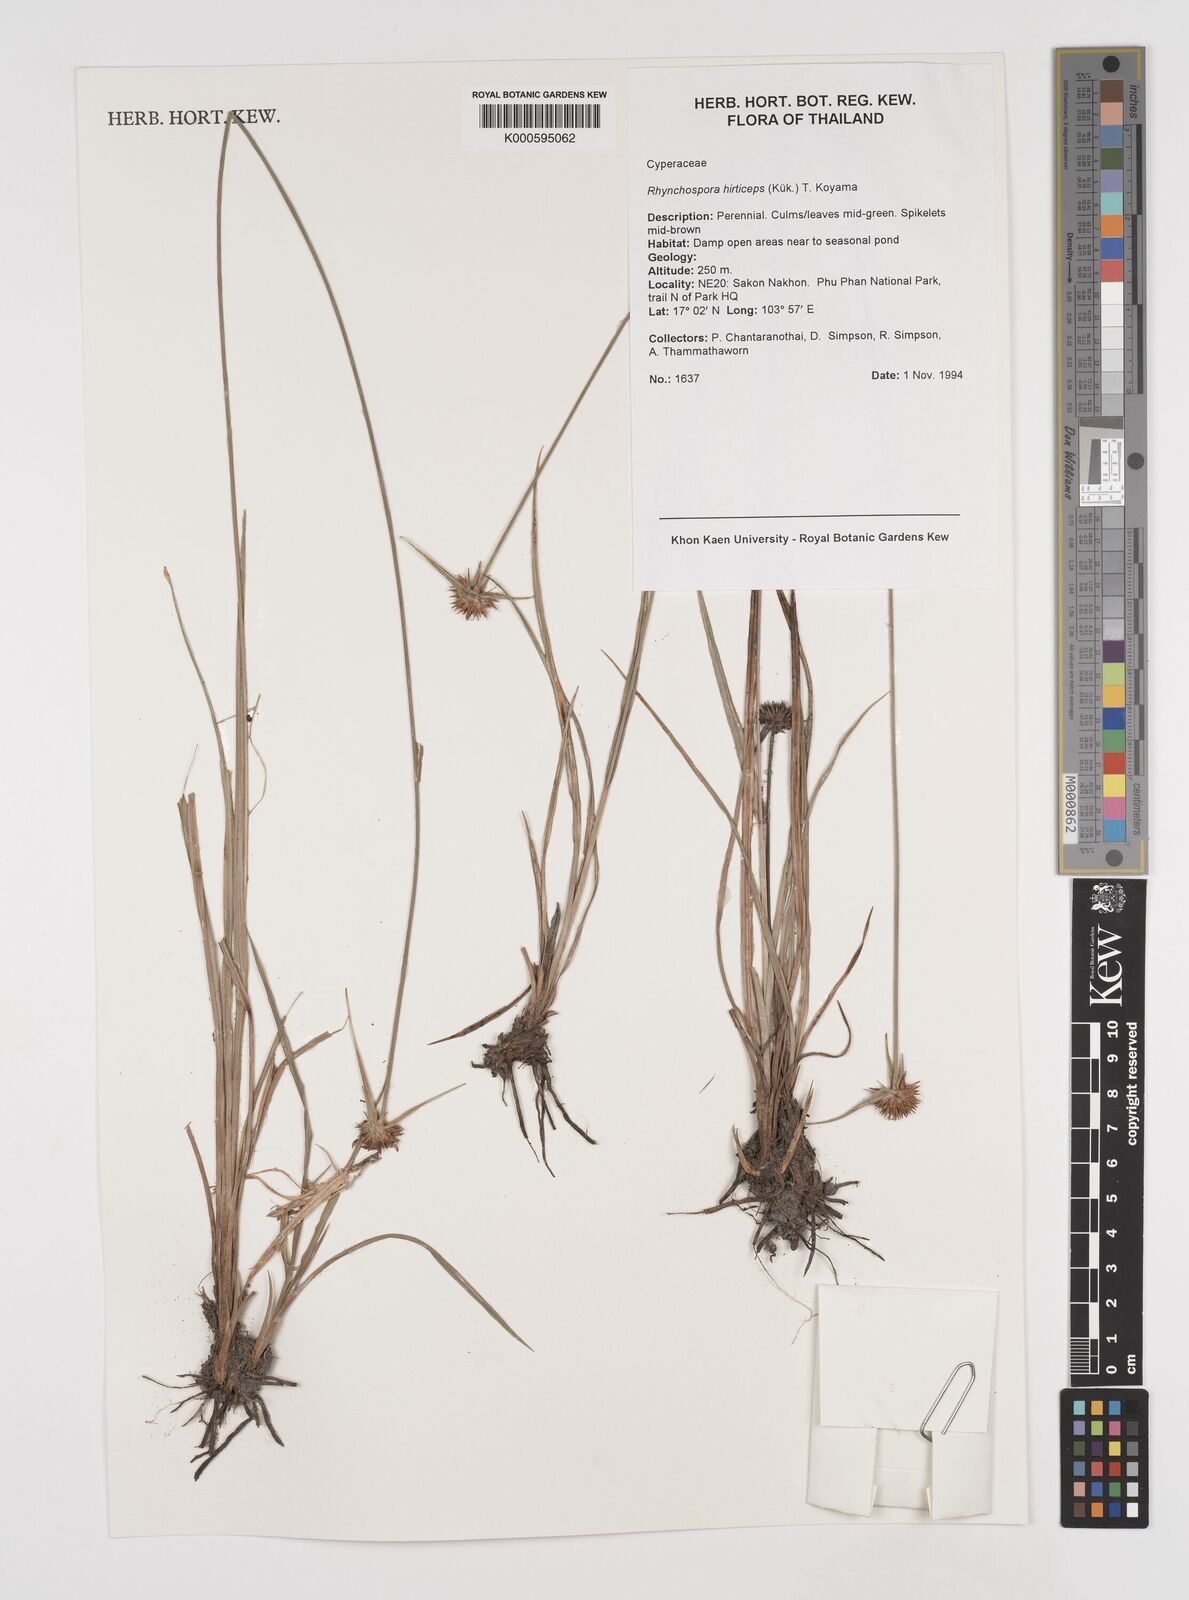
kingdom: Plantae
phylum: Tracheophyta
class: Liliopsida
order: Poales
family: Cyperaceae
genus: Rhynchospora
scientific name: Rhynchospora
